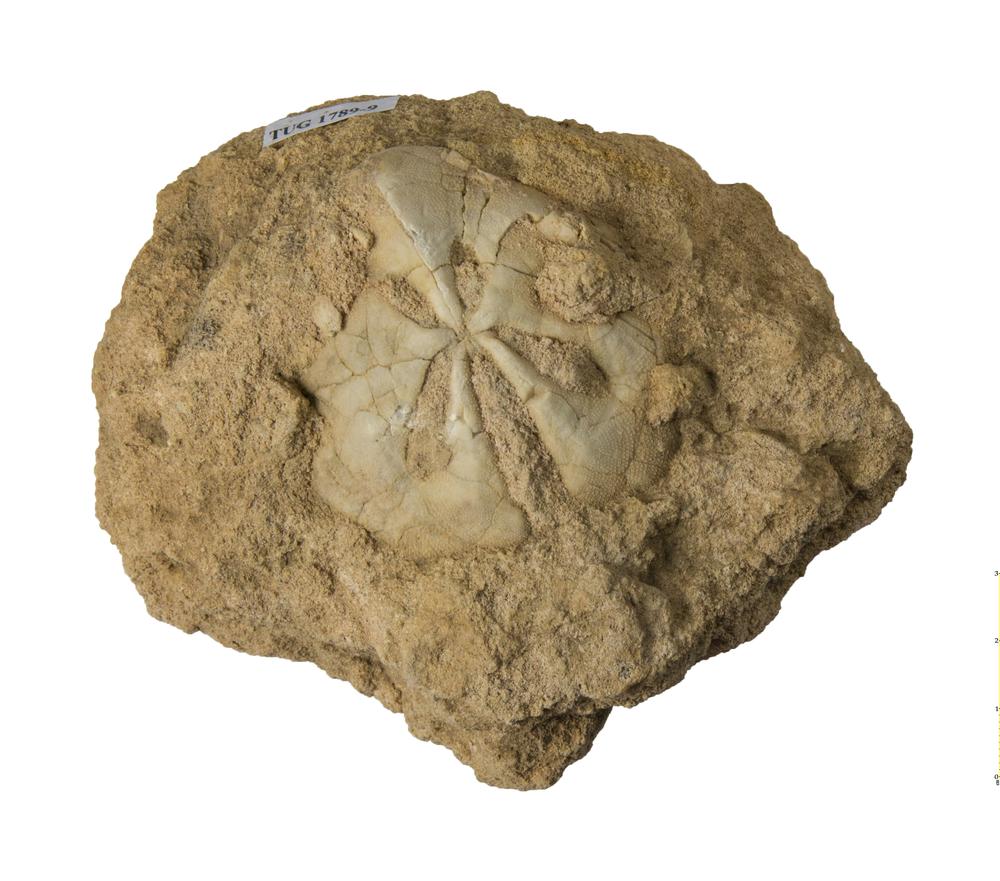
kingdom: Animalia
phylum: Echinodermata
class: Echinoidea
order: Clypeasteroida
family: Clypeasteridae
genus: Clypeaster
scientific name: Clypeaster
